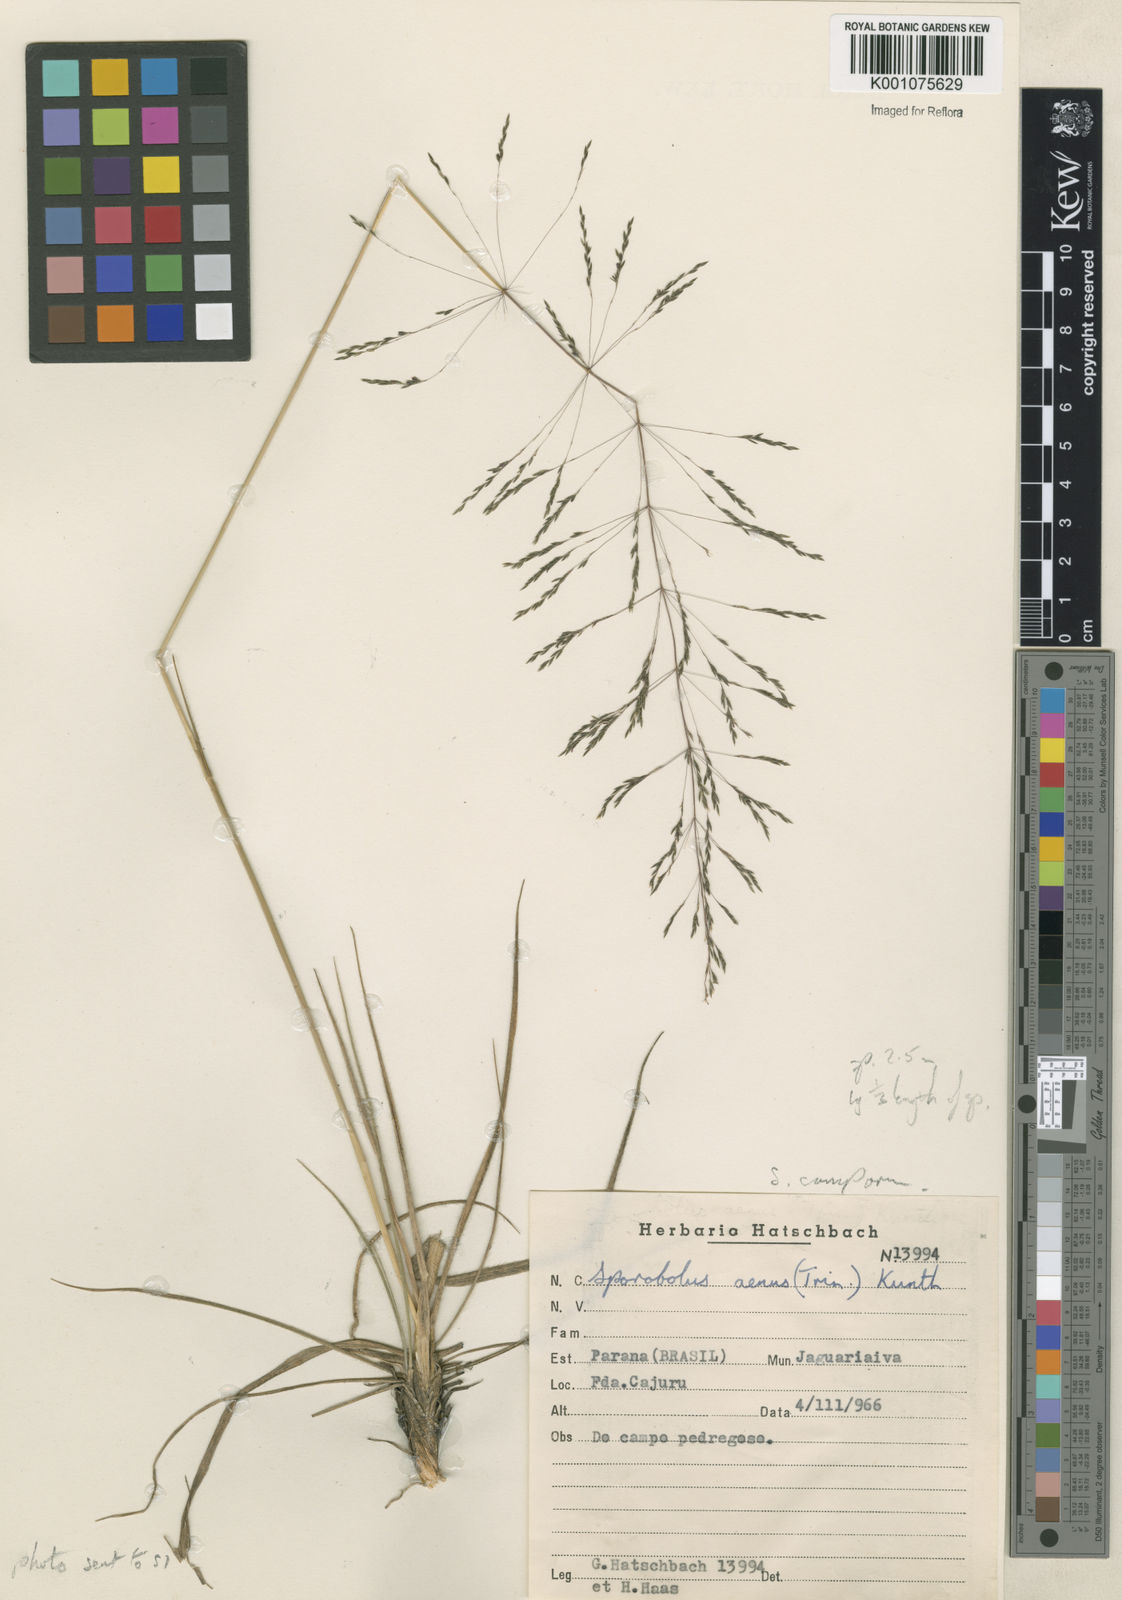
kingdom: Plantae
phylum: Tracheophyta
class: Liliopsida
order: Poales
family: Poaceae
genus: Sporobolus
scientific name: Sporobolus camporum
